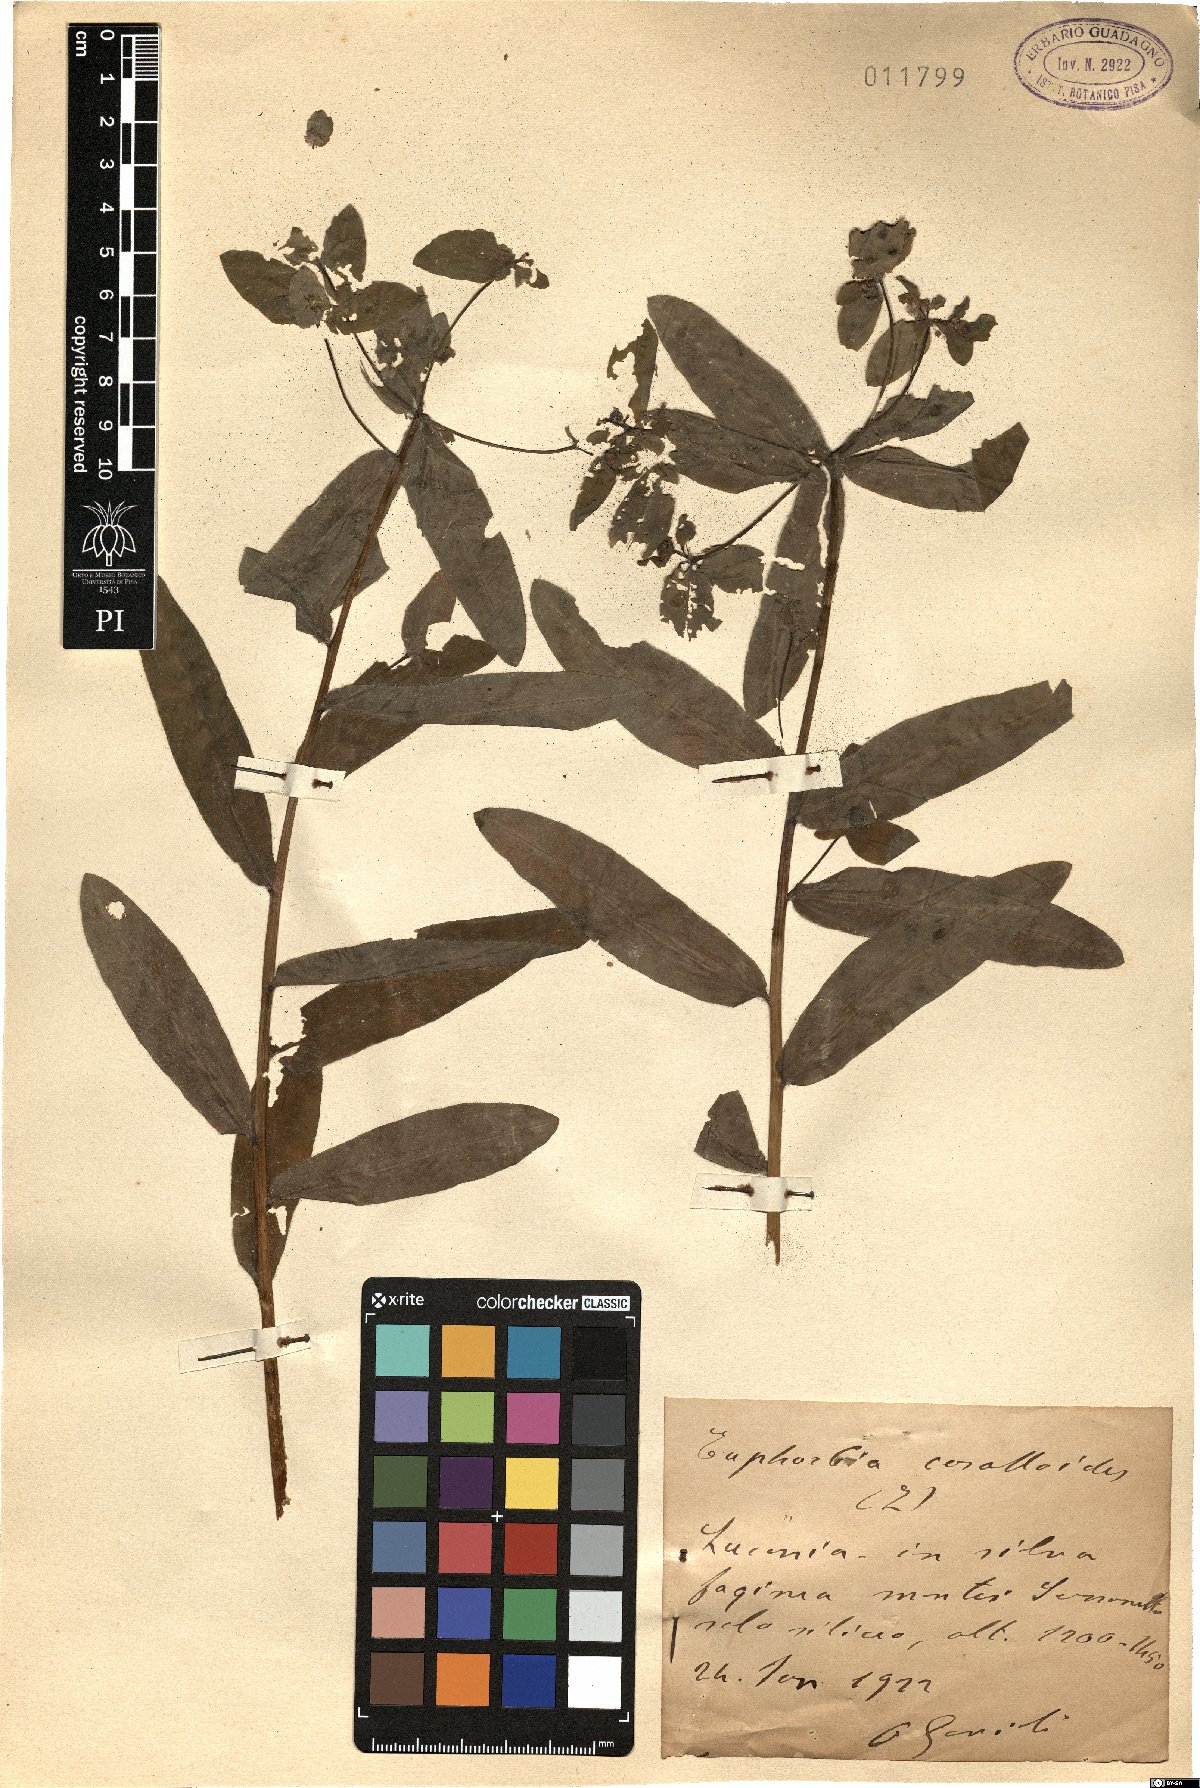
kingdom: Plantae
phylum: Tracheophyta
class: Magnoliopsida
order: Malpighiales
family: Euphorbiaceae
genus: Euphorbia
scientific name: Euphorbia corallioides
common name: Coral spurge
